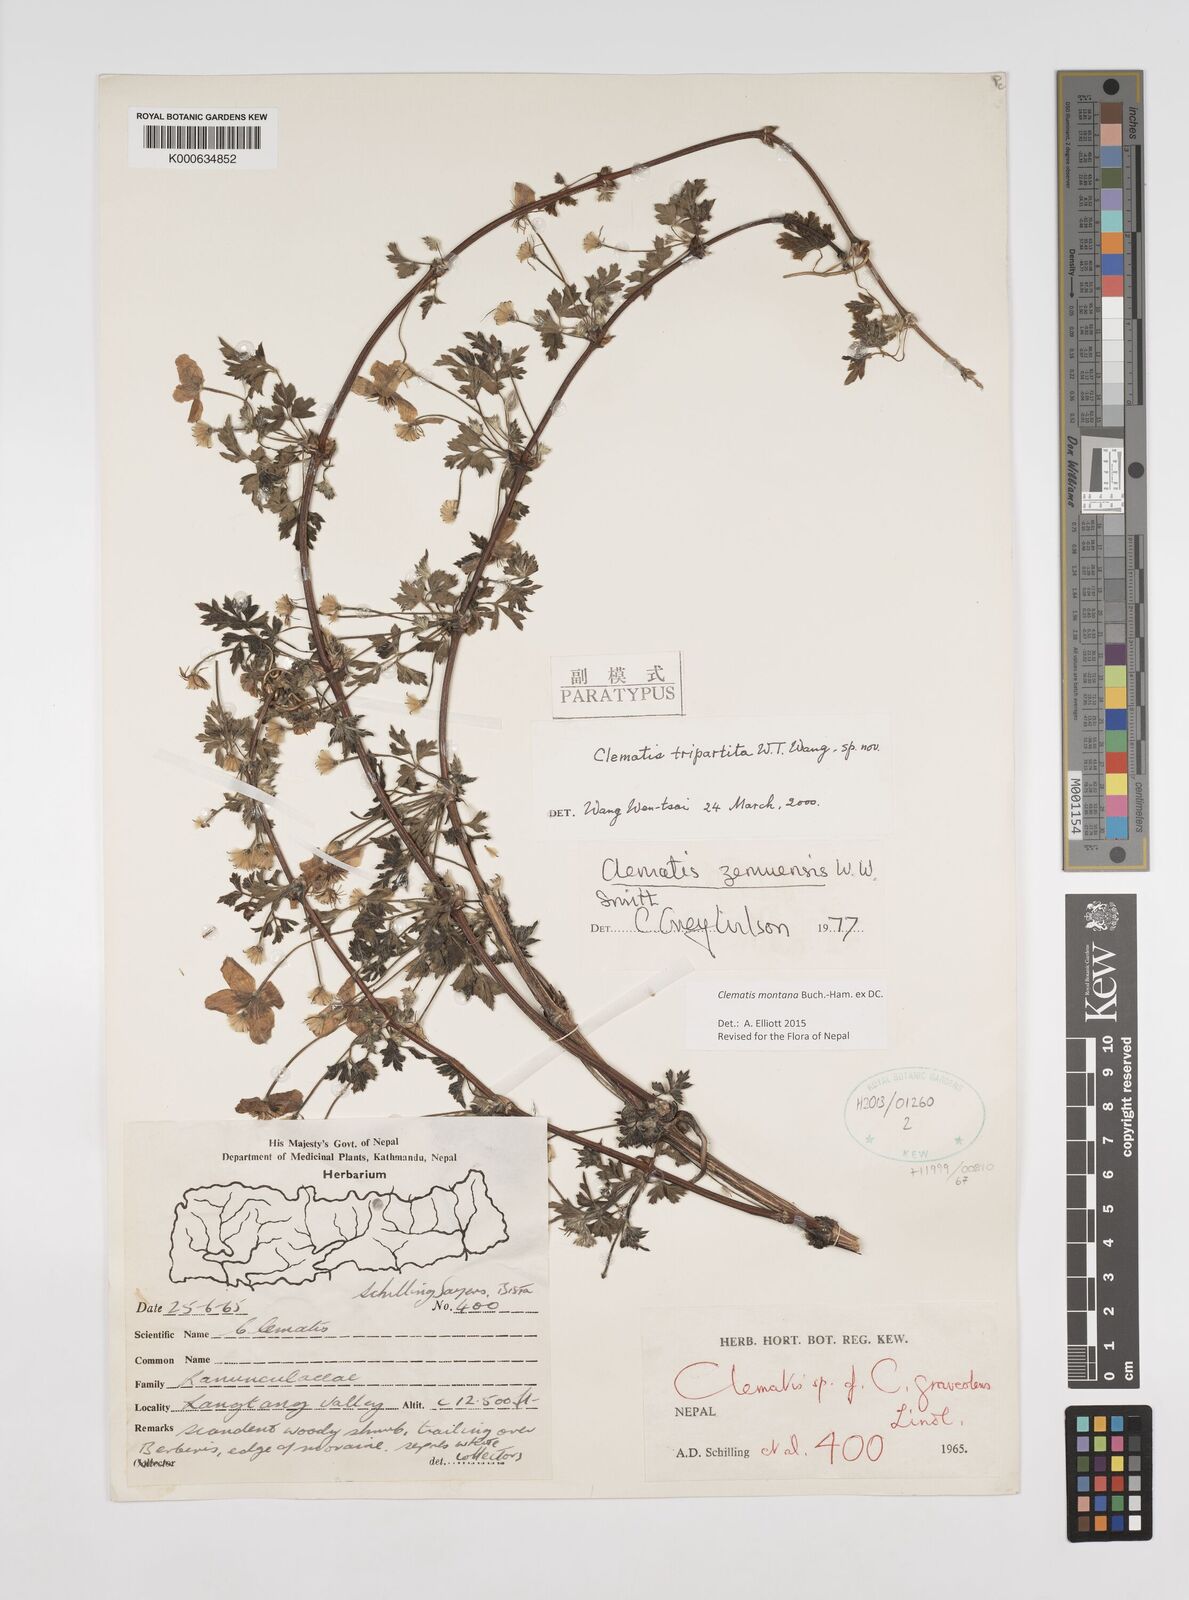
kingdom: Plantae
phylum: Tracheophyta
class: Magnoliopsida
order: Ranunculales
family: Ranunculaceae
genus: Clematis
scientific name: Clematis montana
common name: Himalayan clematis
